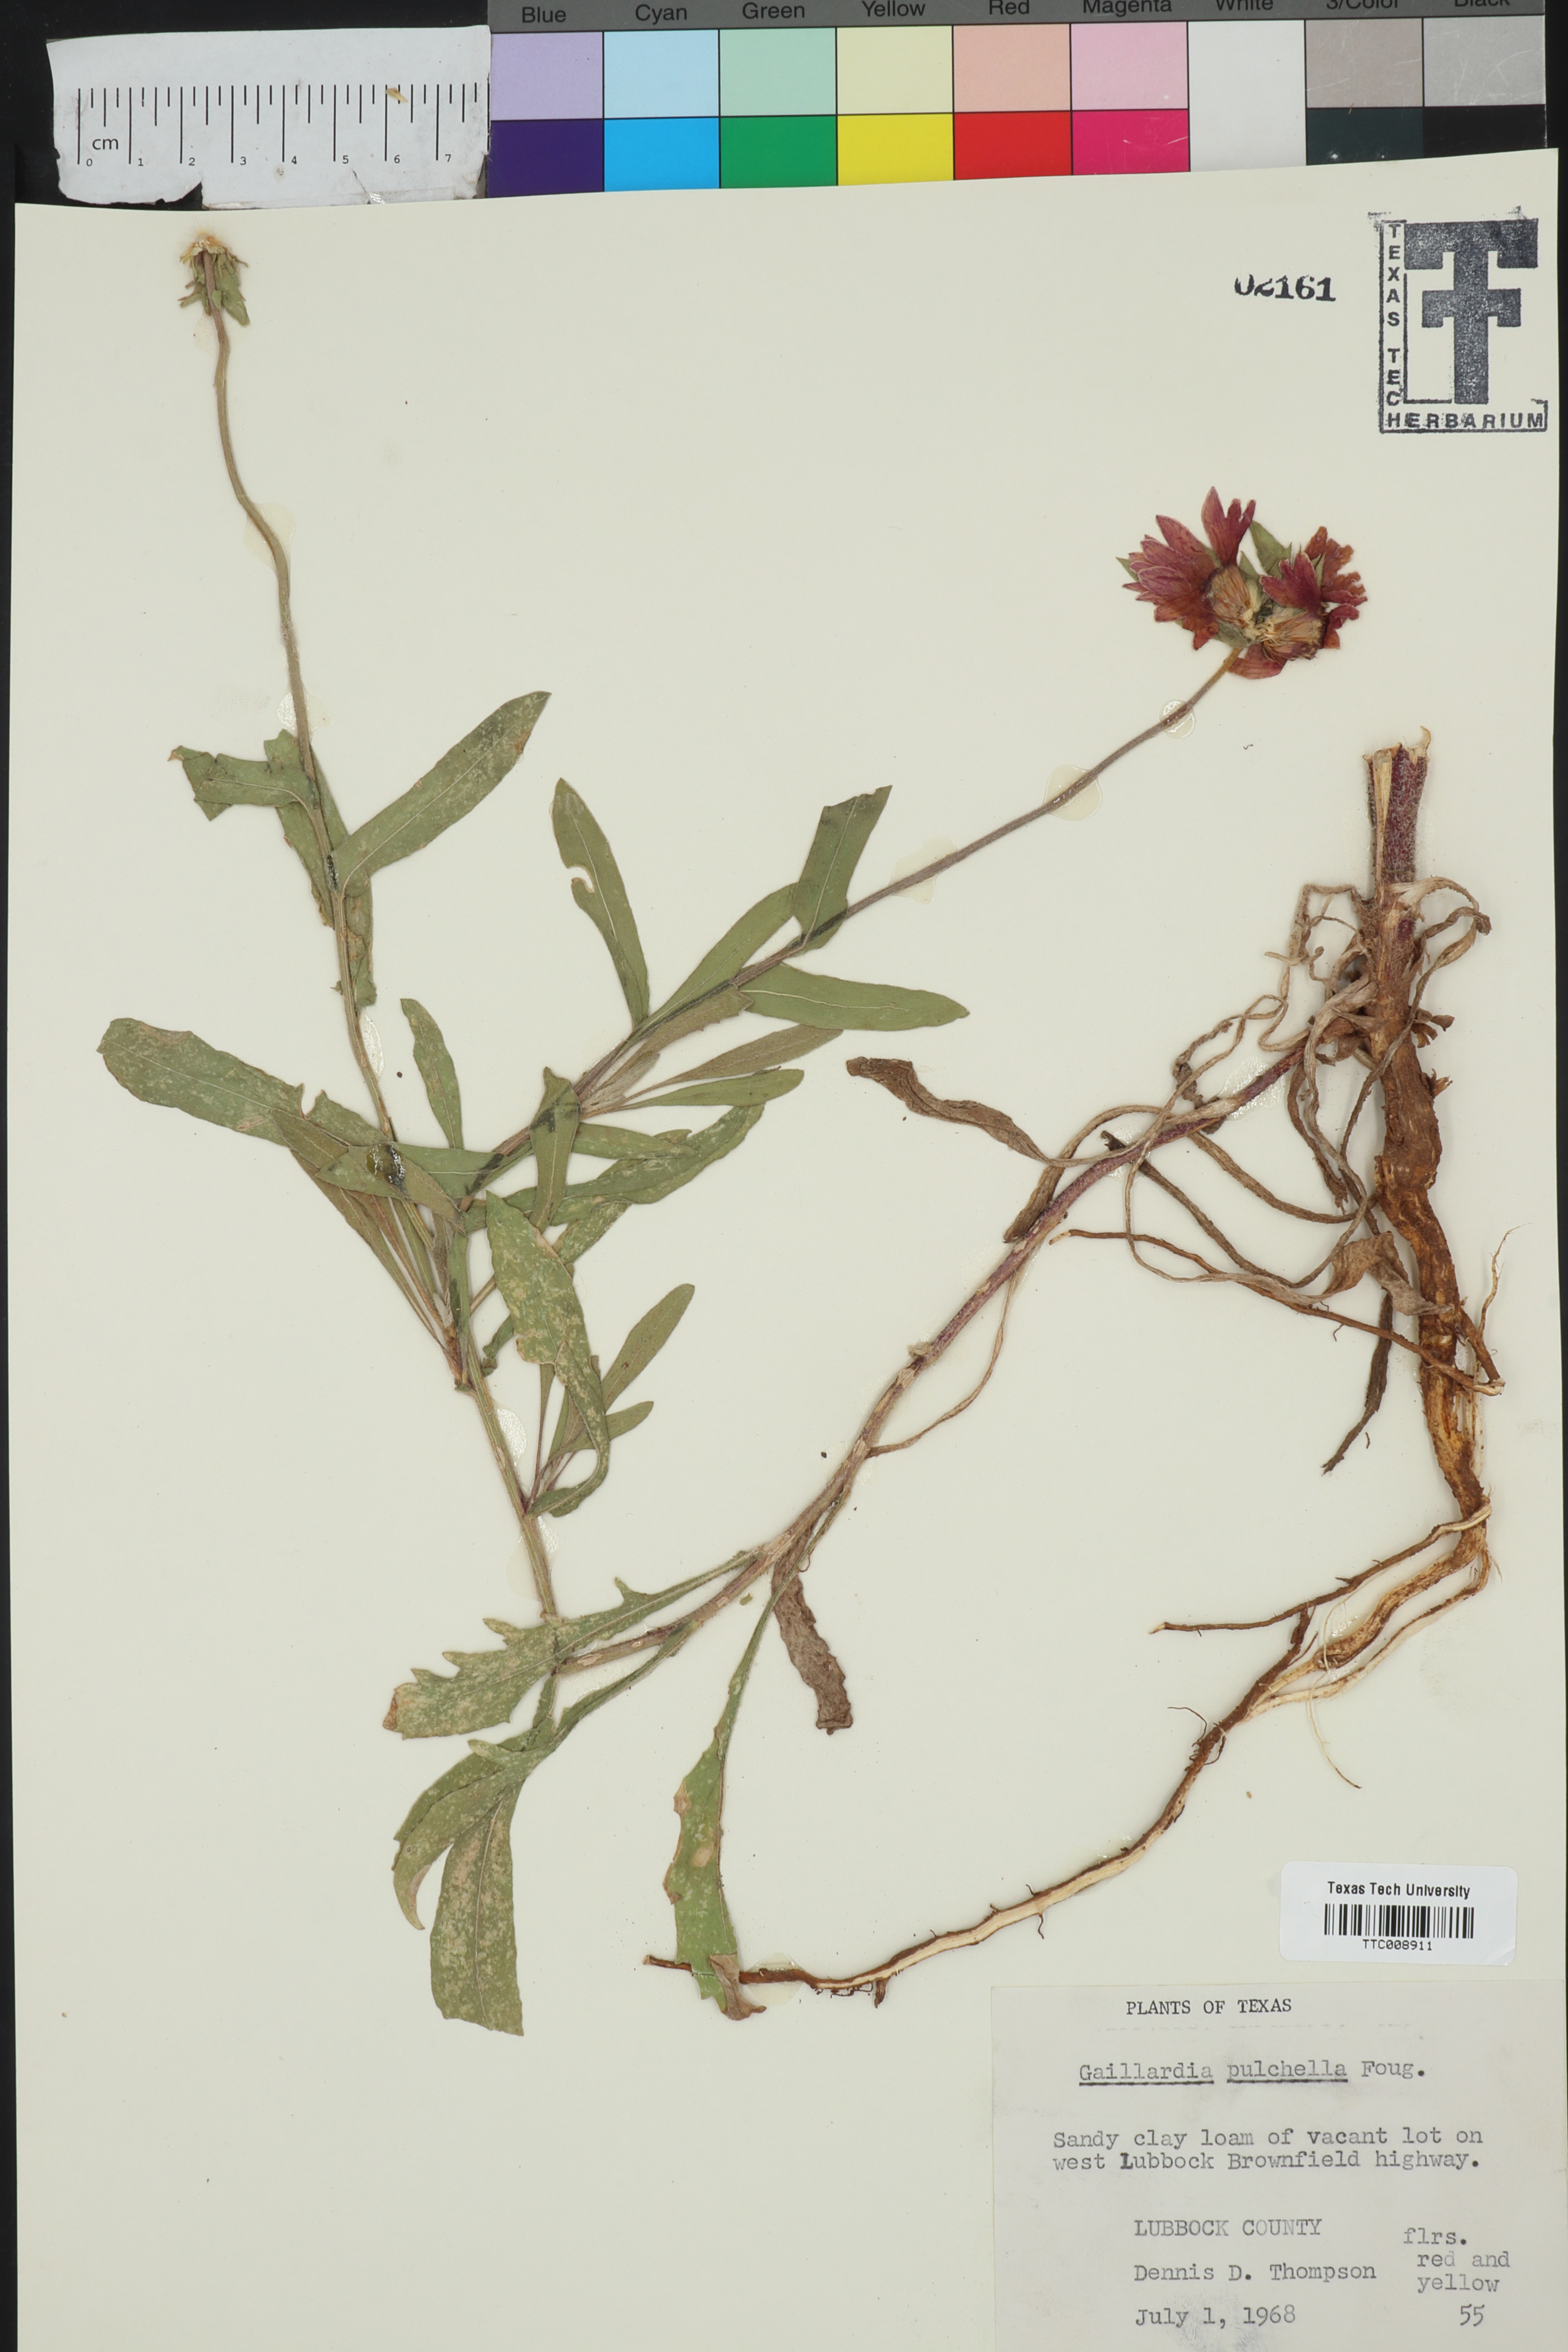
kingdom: Plantae
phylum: Tracheophyta
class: Magnoliopsida
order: Asterales
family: Asteraceae
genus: Gaillardia
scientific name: Gaillardia pulchella
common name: Firewheel
